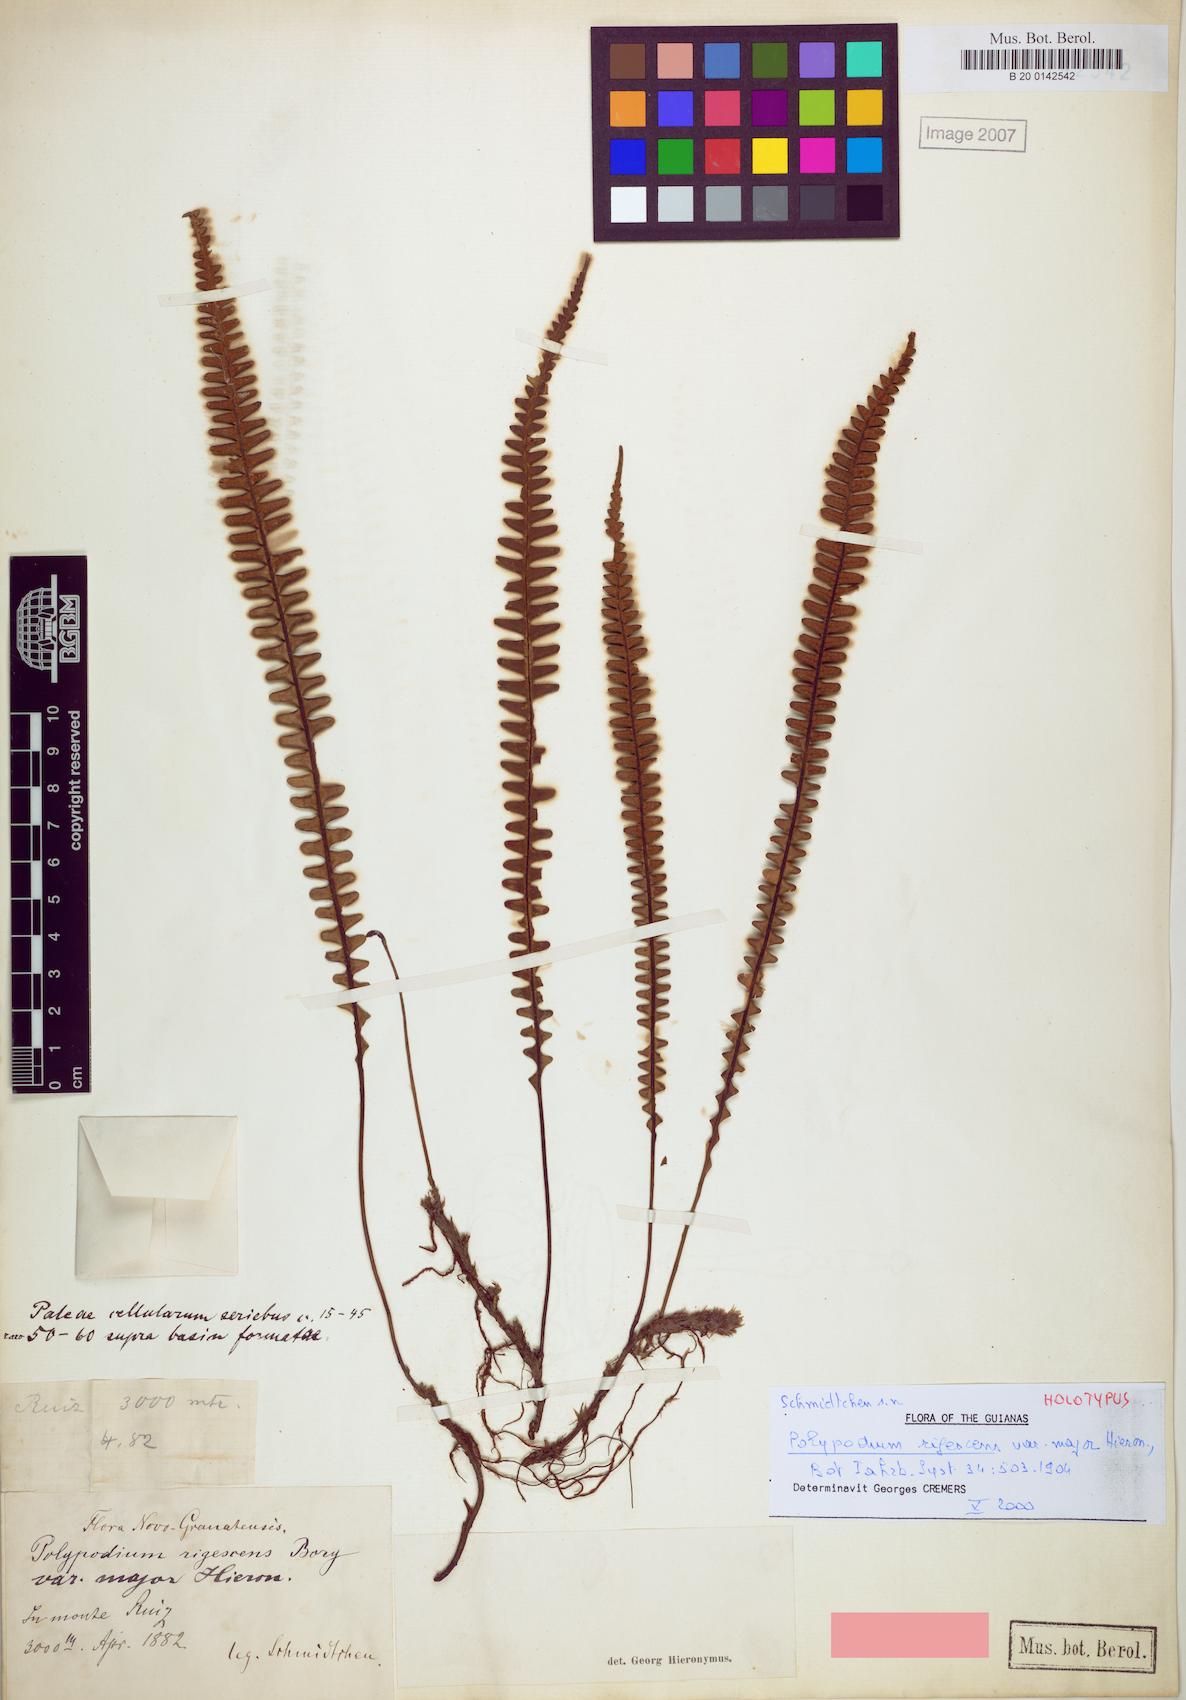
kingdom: Plantae
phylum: Tracheophyta
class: Polypodiopsida
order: Polypodiales
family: Polypodiaceae
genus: Melpomene
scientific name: Melpomene flabelliformis
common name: Fanleaf dwarf polypody
